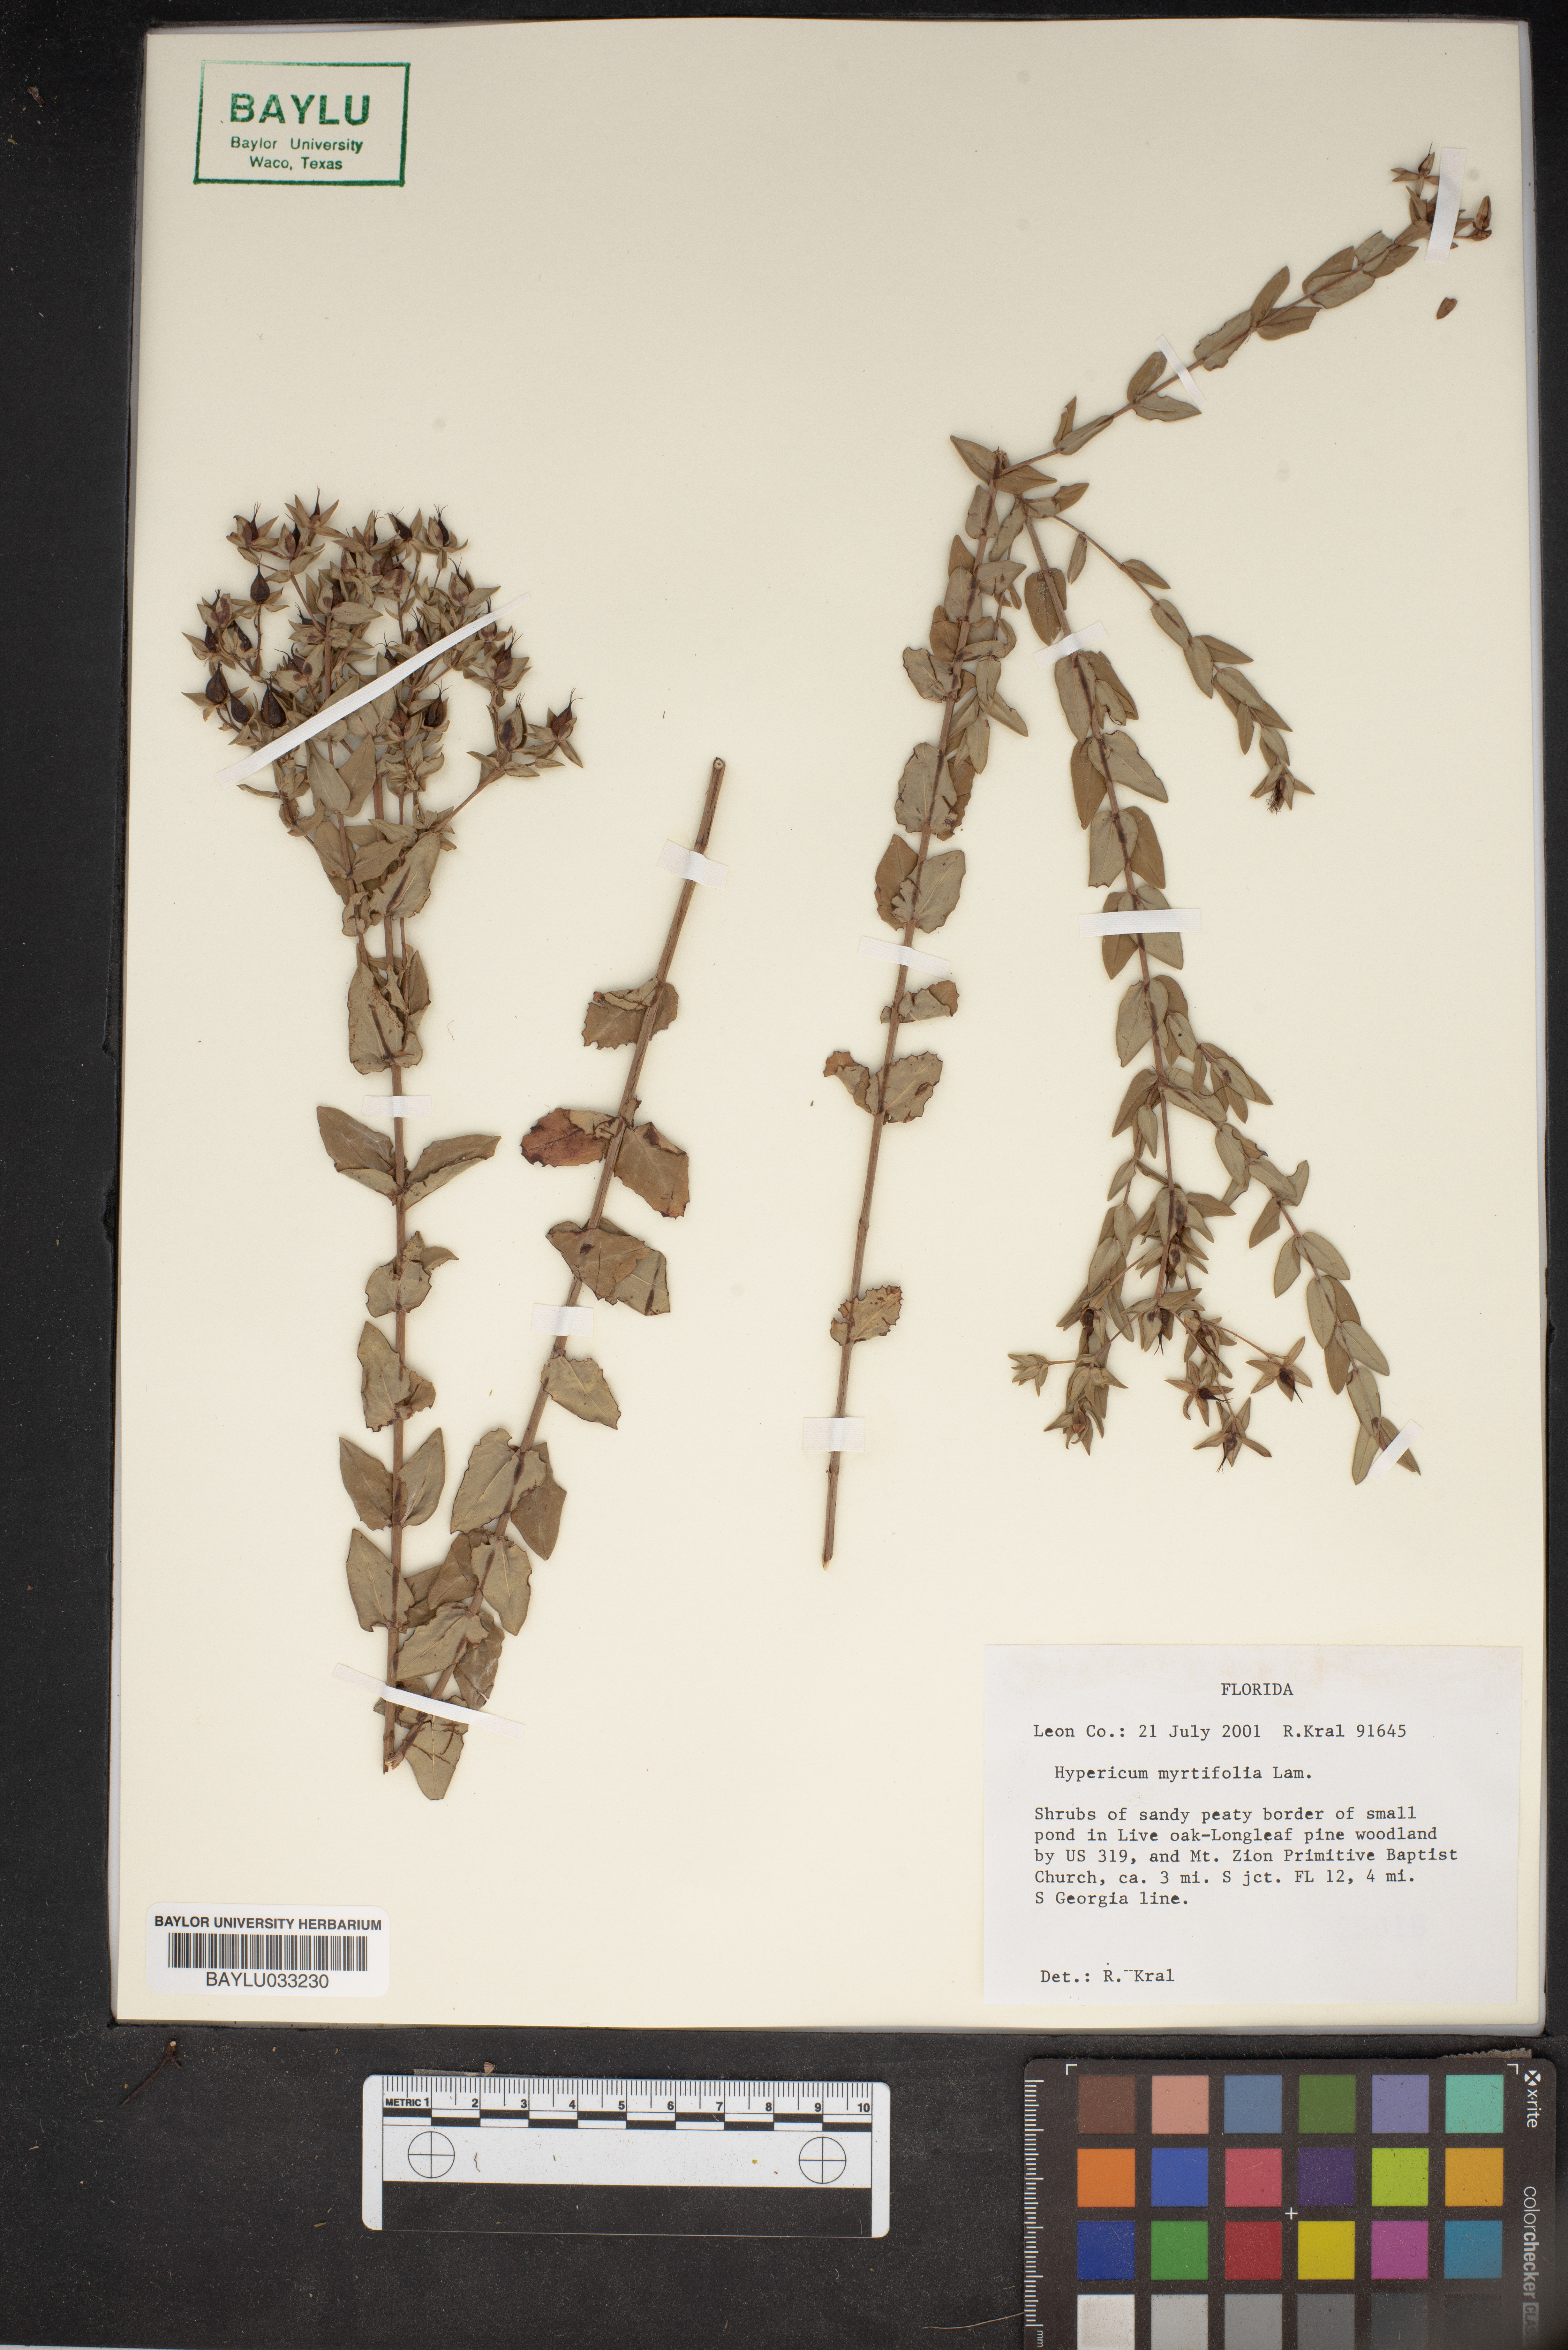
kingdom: Plantae
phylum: Tracheophyta
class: Magnoliopsida
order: Malpighiales
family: Hypericaceae
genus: Hypericum
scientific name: Hypericum myrtifolium
